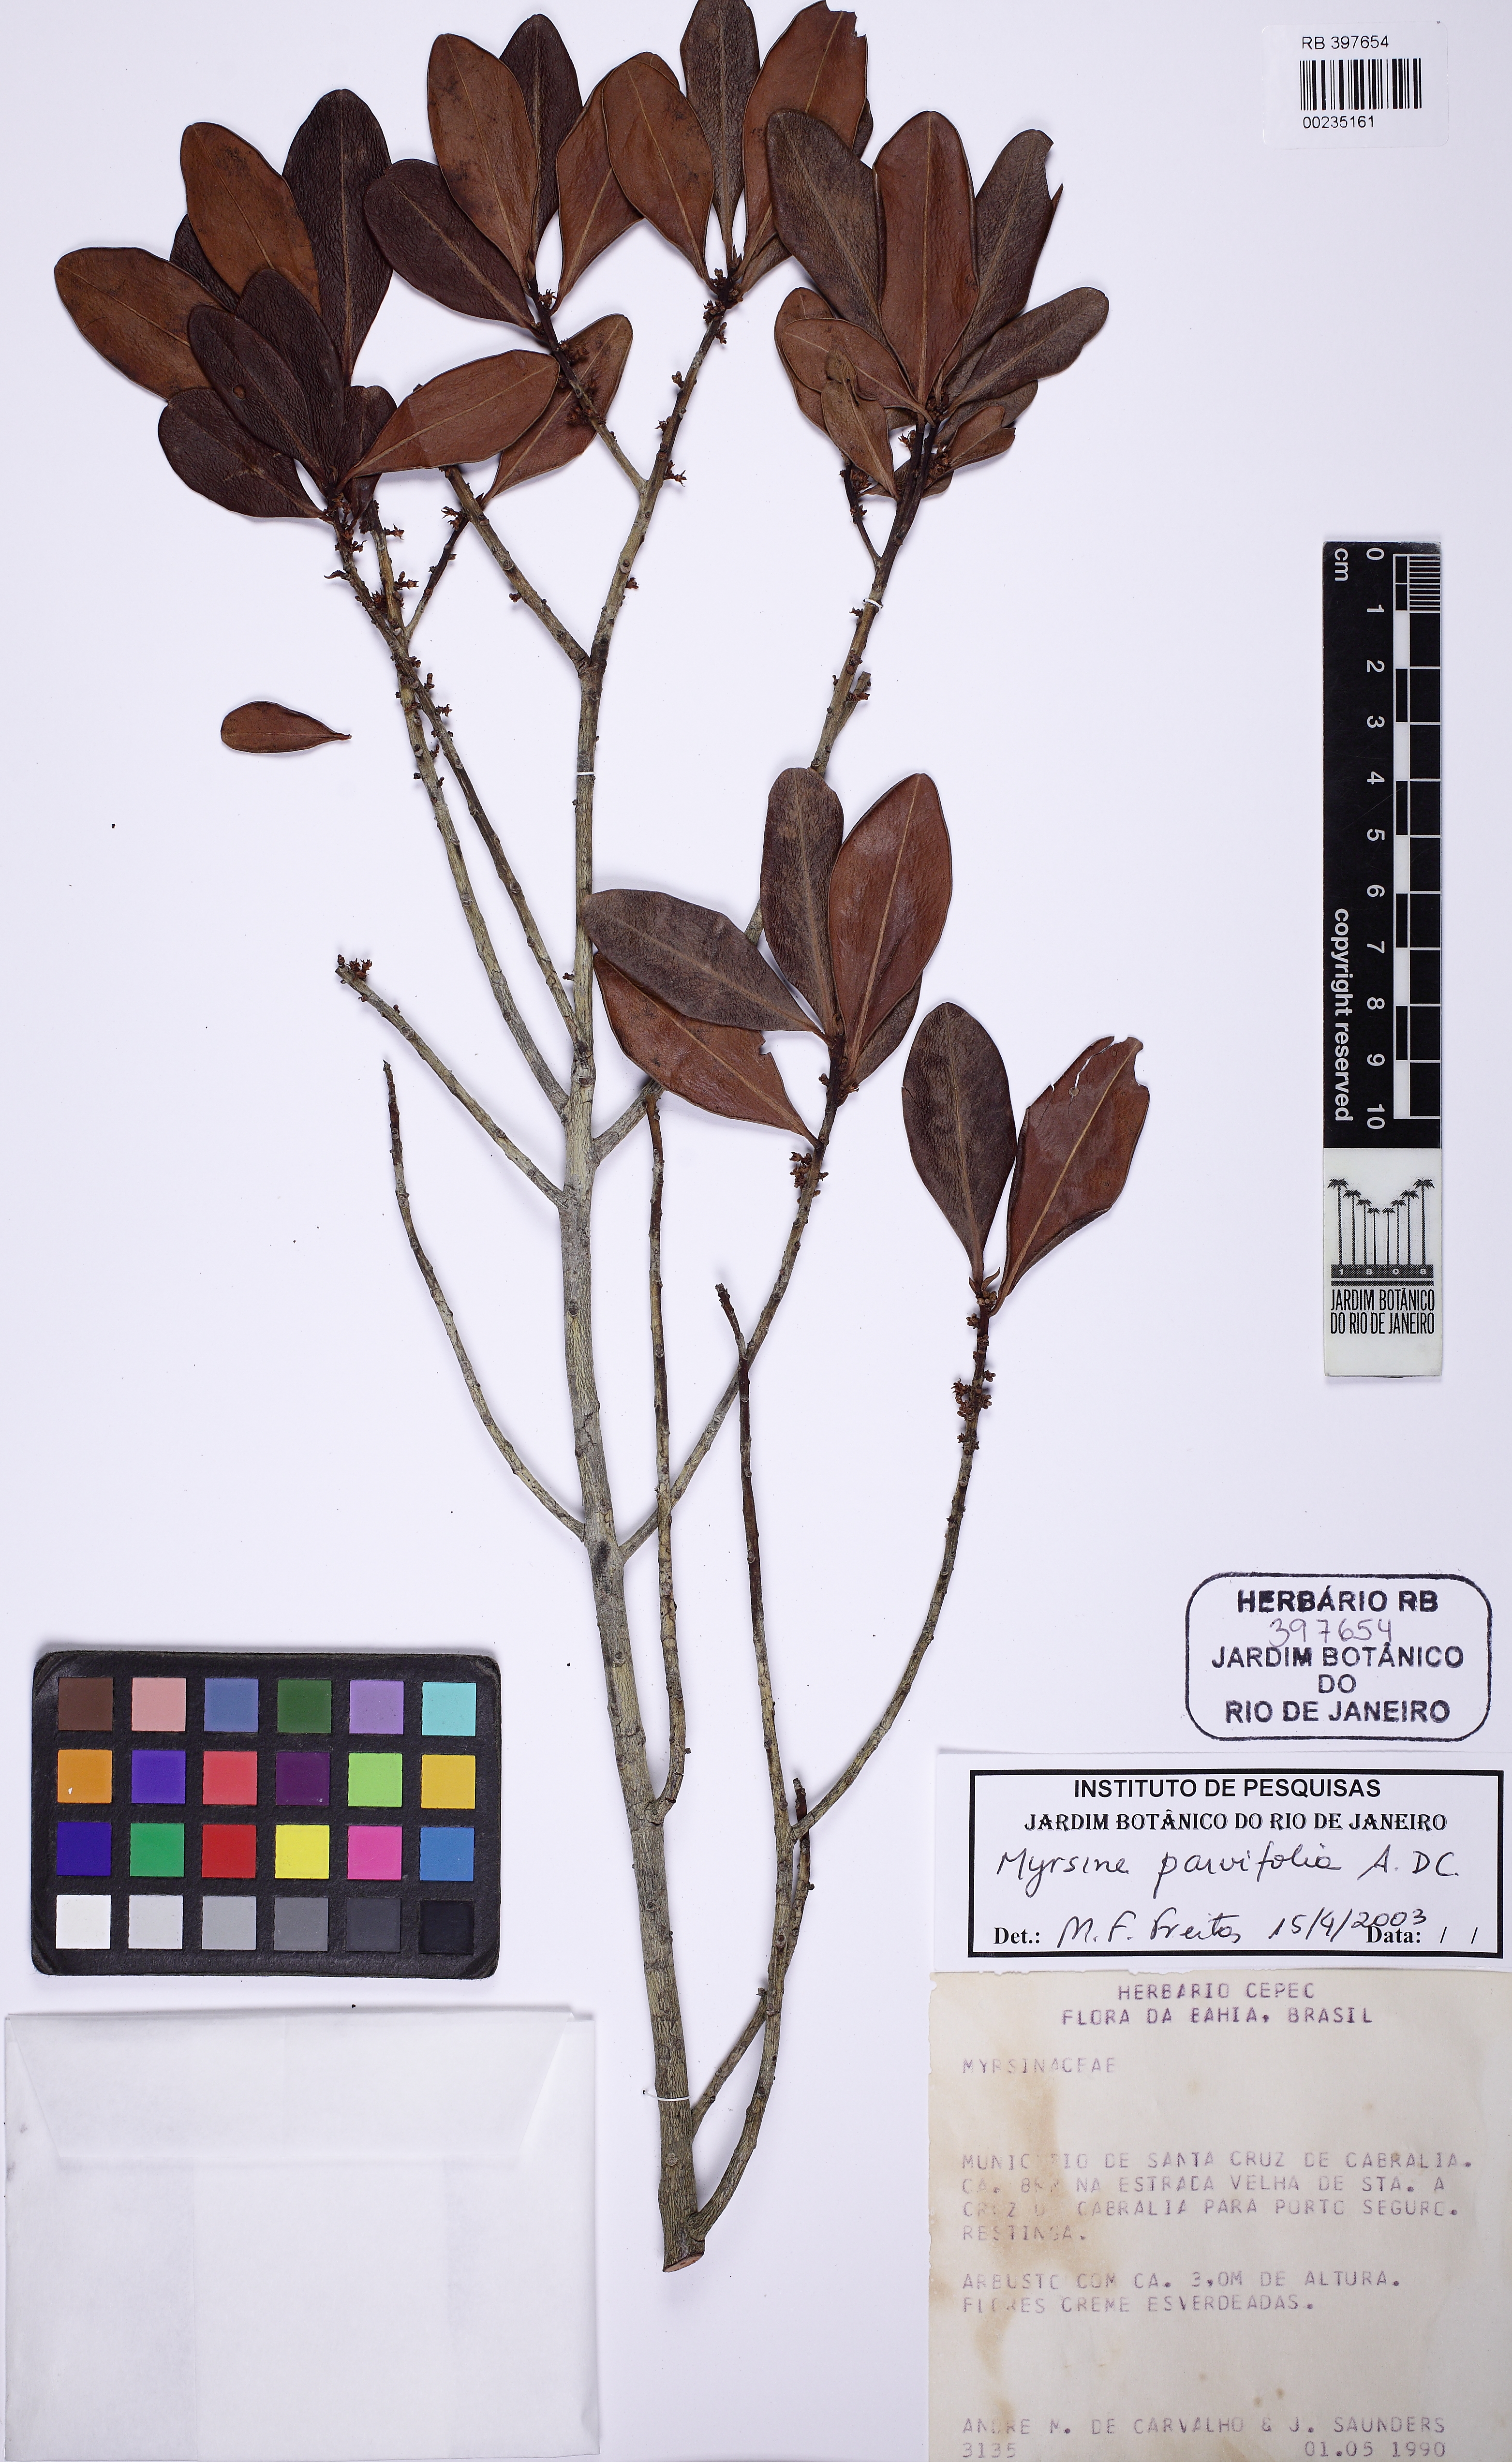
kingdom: Plantae
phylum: Tracheophyta
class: Magnoliopsida
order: Ericales
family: Primulaceae
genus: Myrsine
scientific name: Myrsine parvifolia
